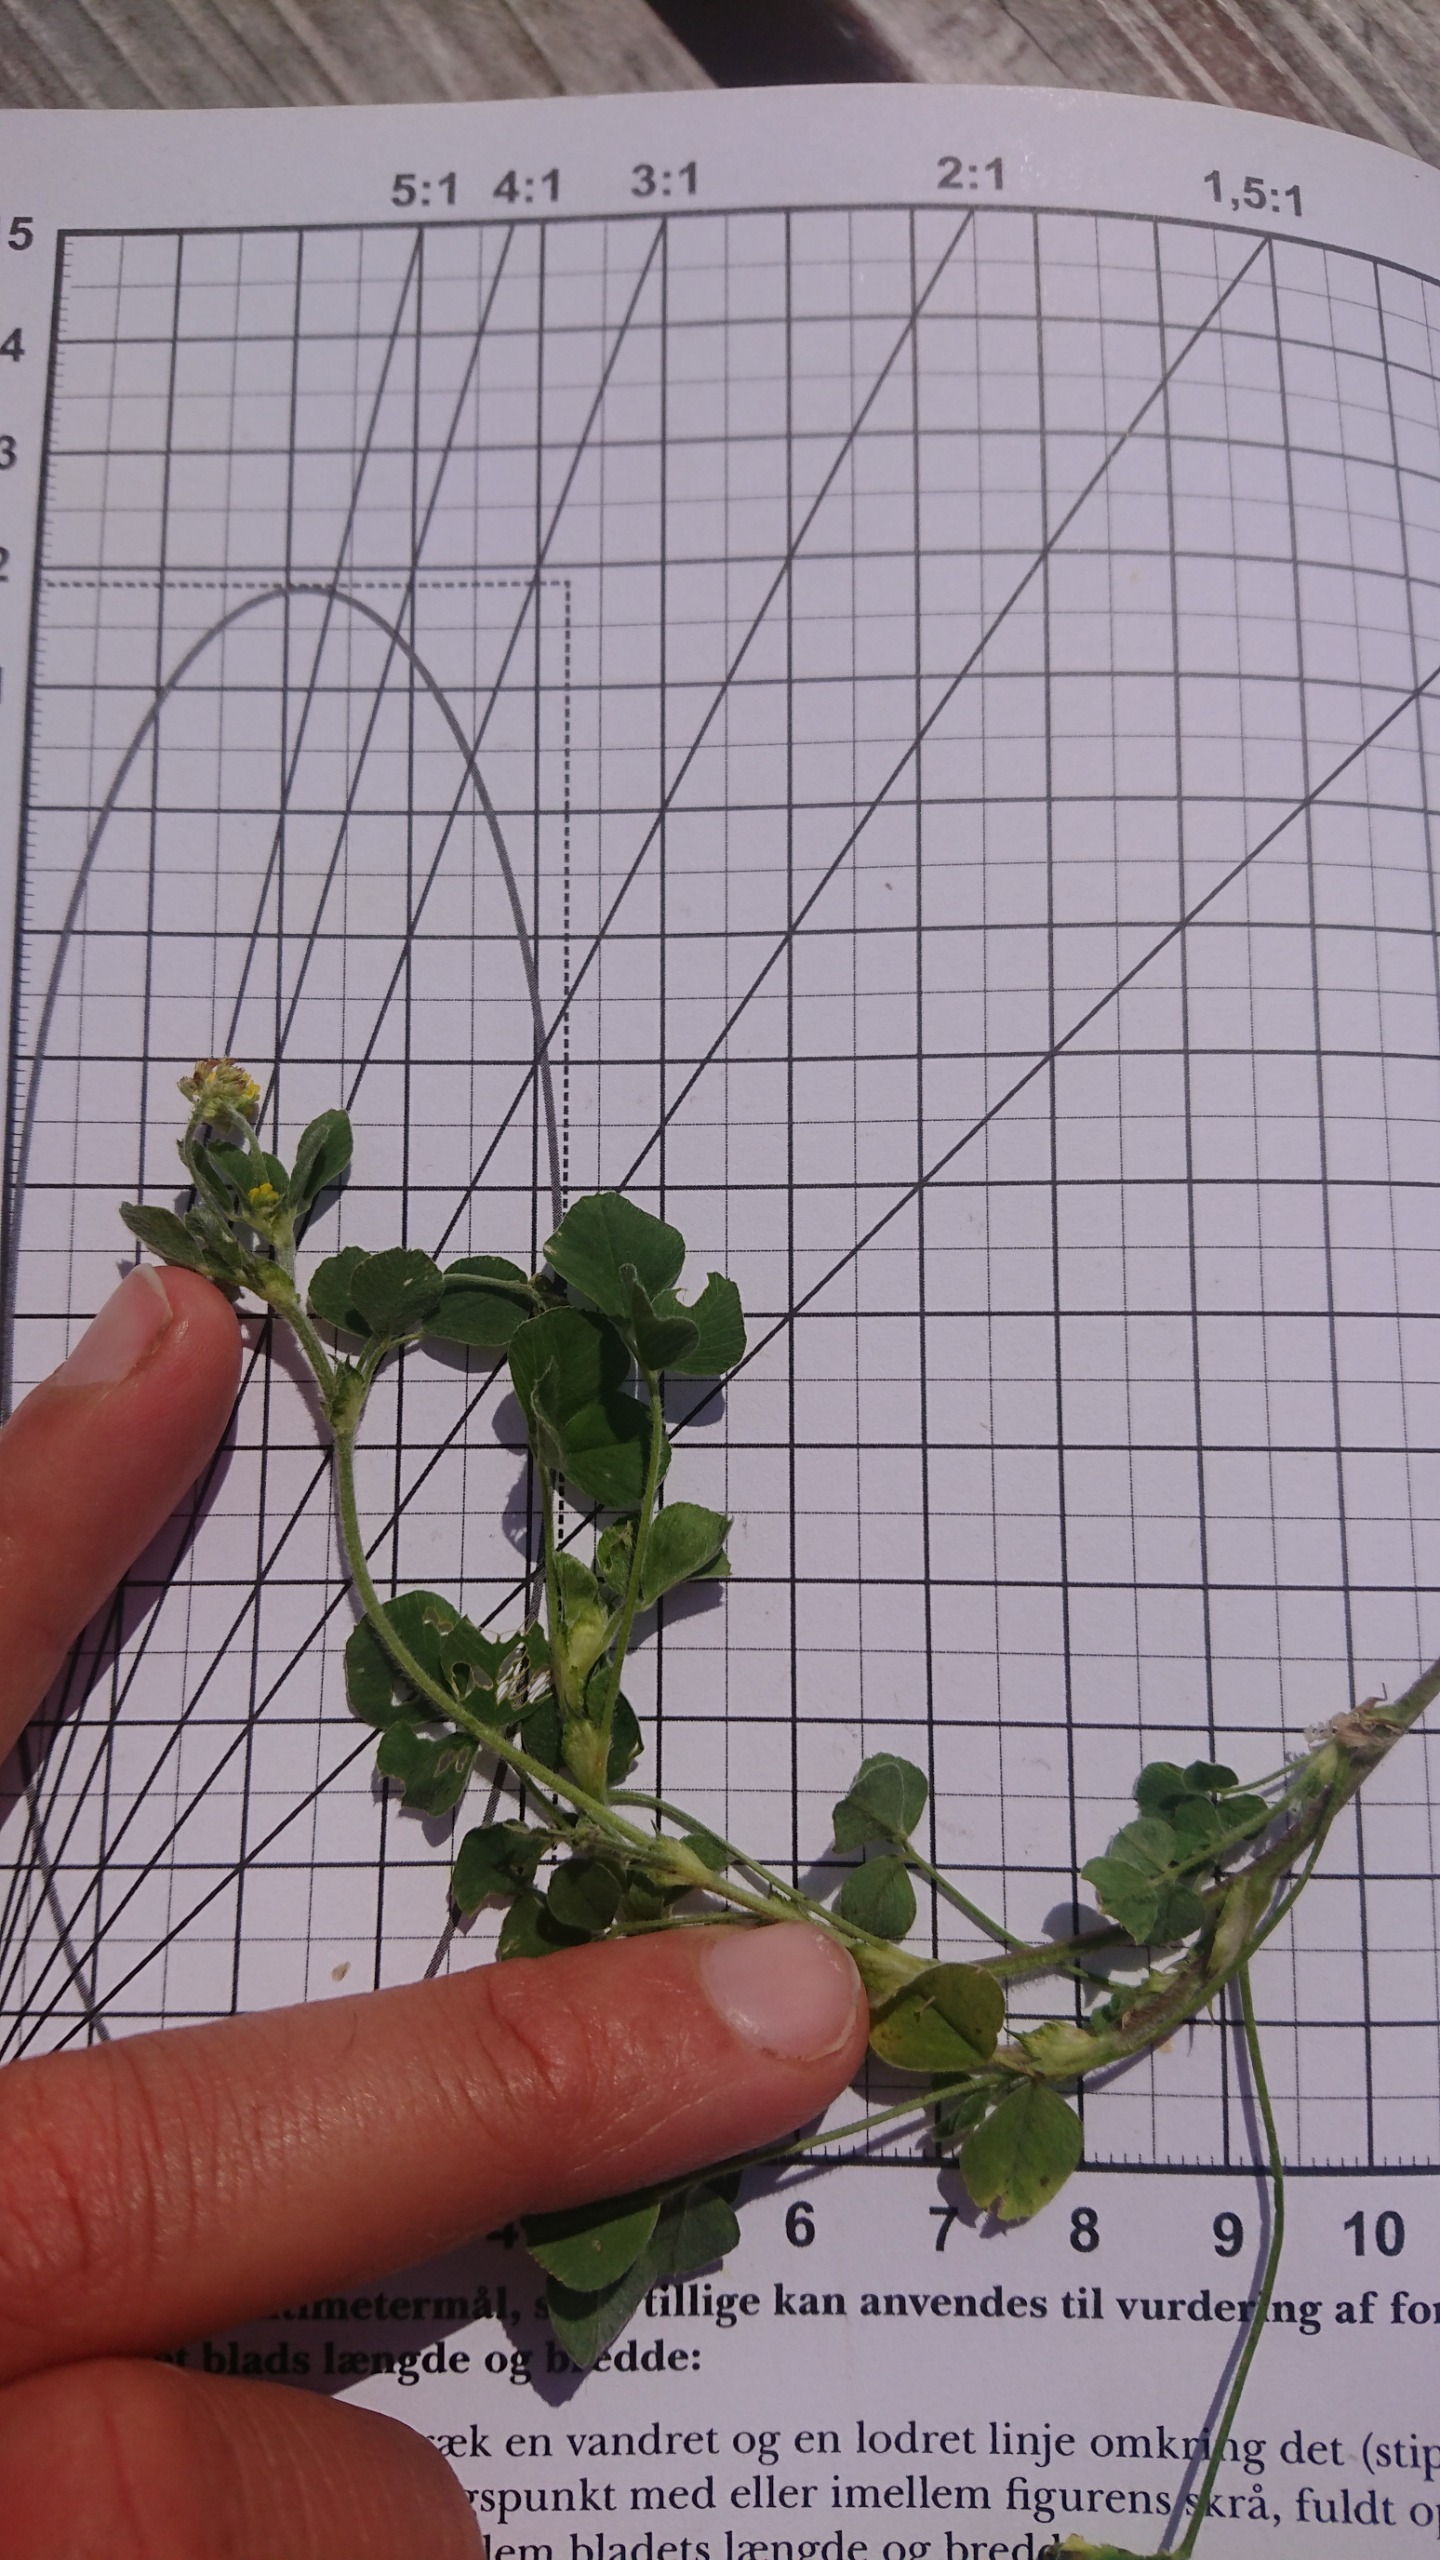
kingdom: Plantae
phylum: Tracheophyta
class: Magnoliopsida
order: Fabales
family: Fabaceae
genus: Medicago
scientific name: Medicago lupulina
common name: Humle-sneglebælg
